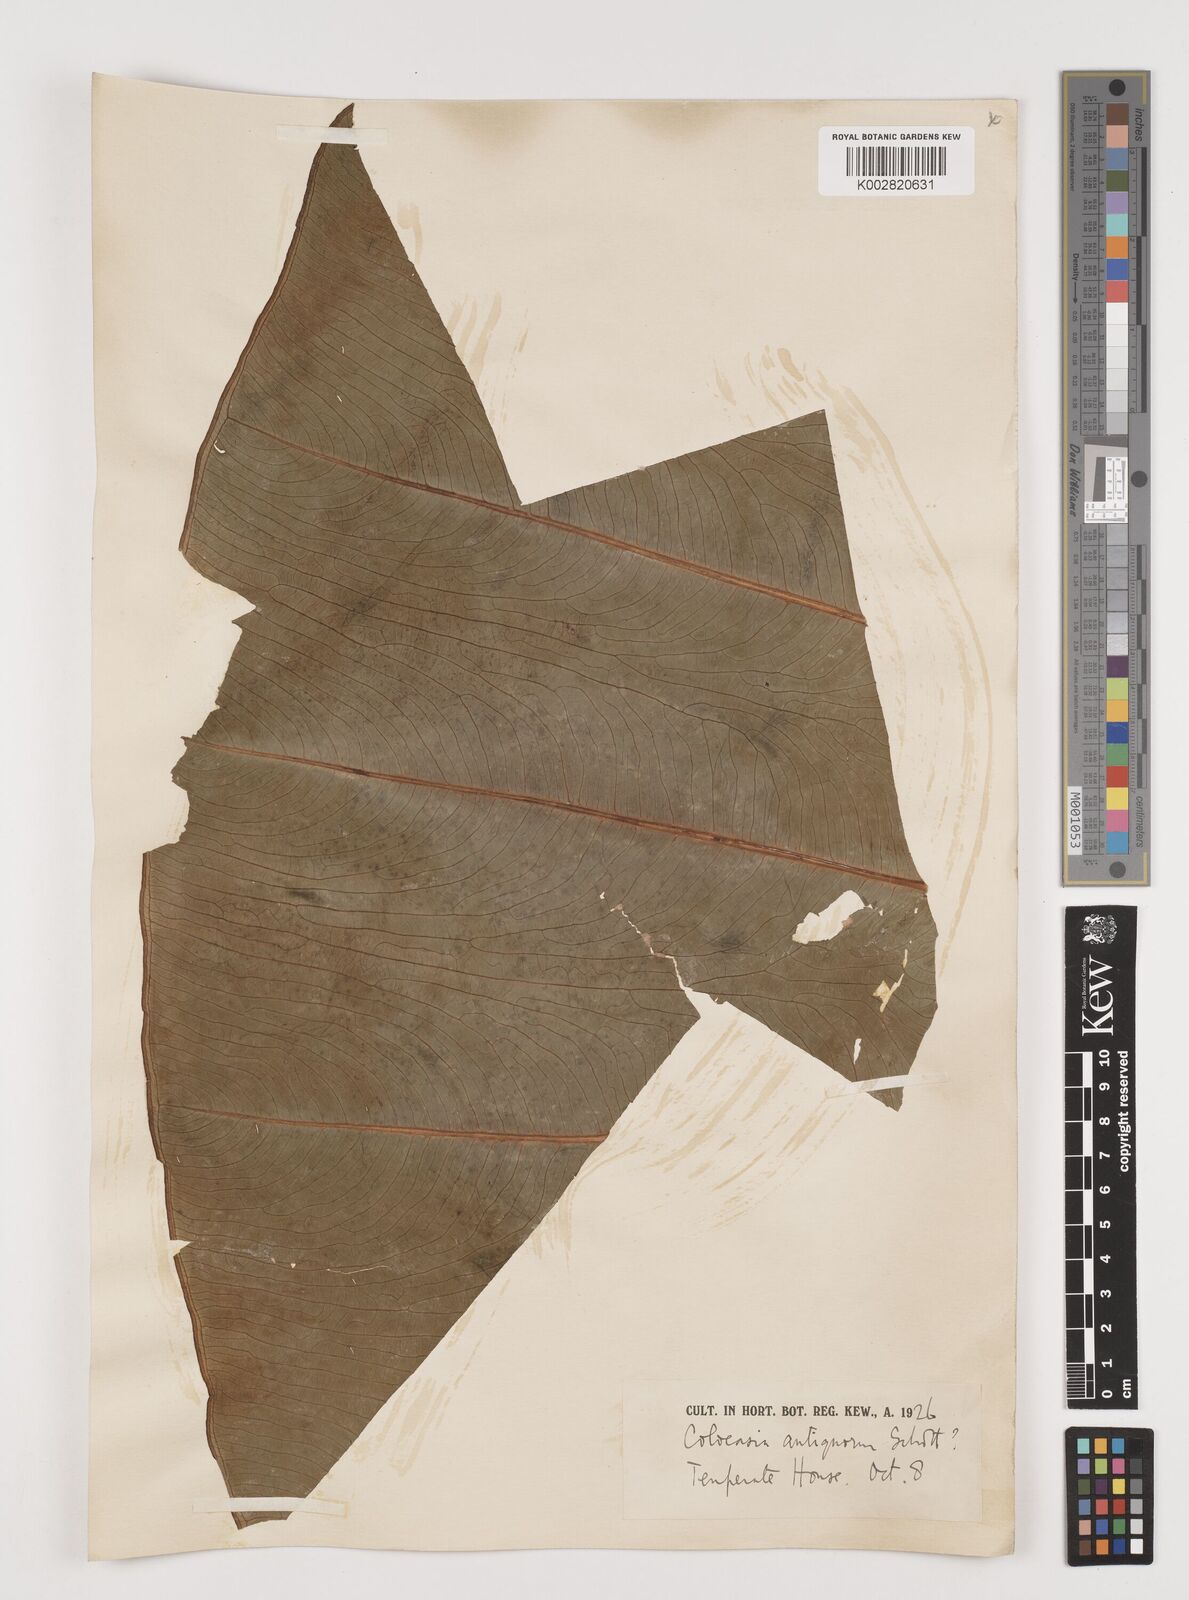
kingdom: Plantae
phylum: Tracheophyta
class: Liliopsida
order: Alismatales
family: Araceae
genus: Leucocasia
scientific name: Leucocasia gigantea
